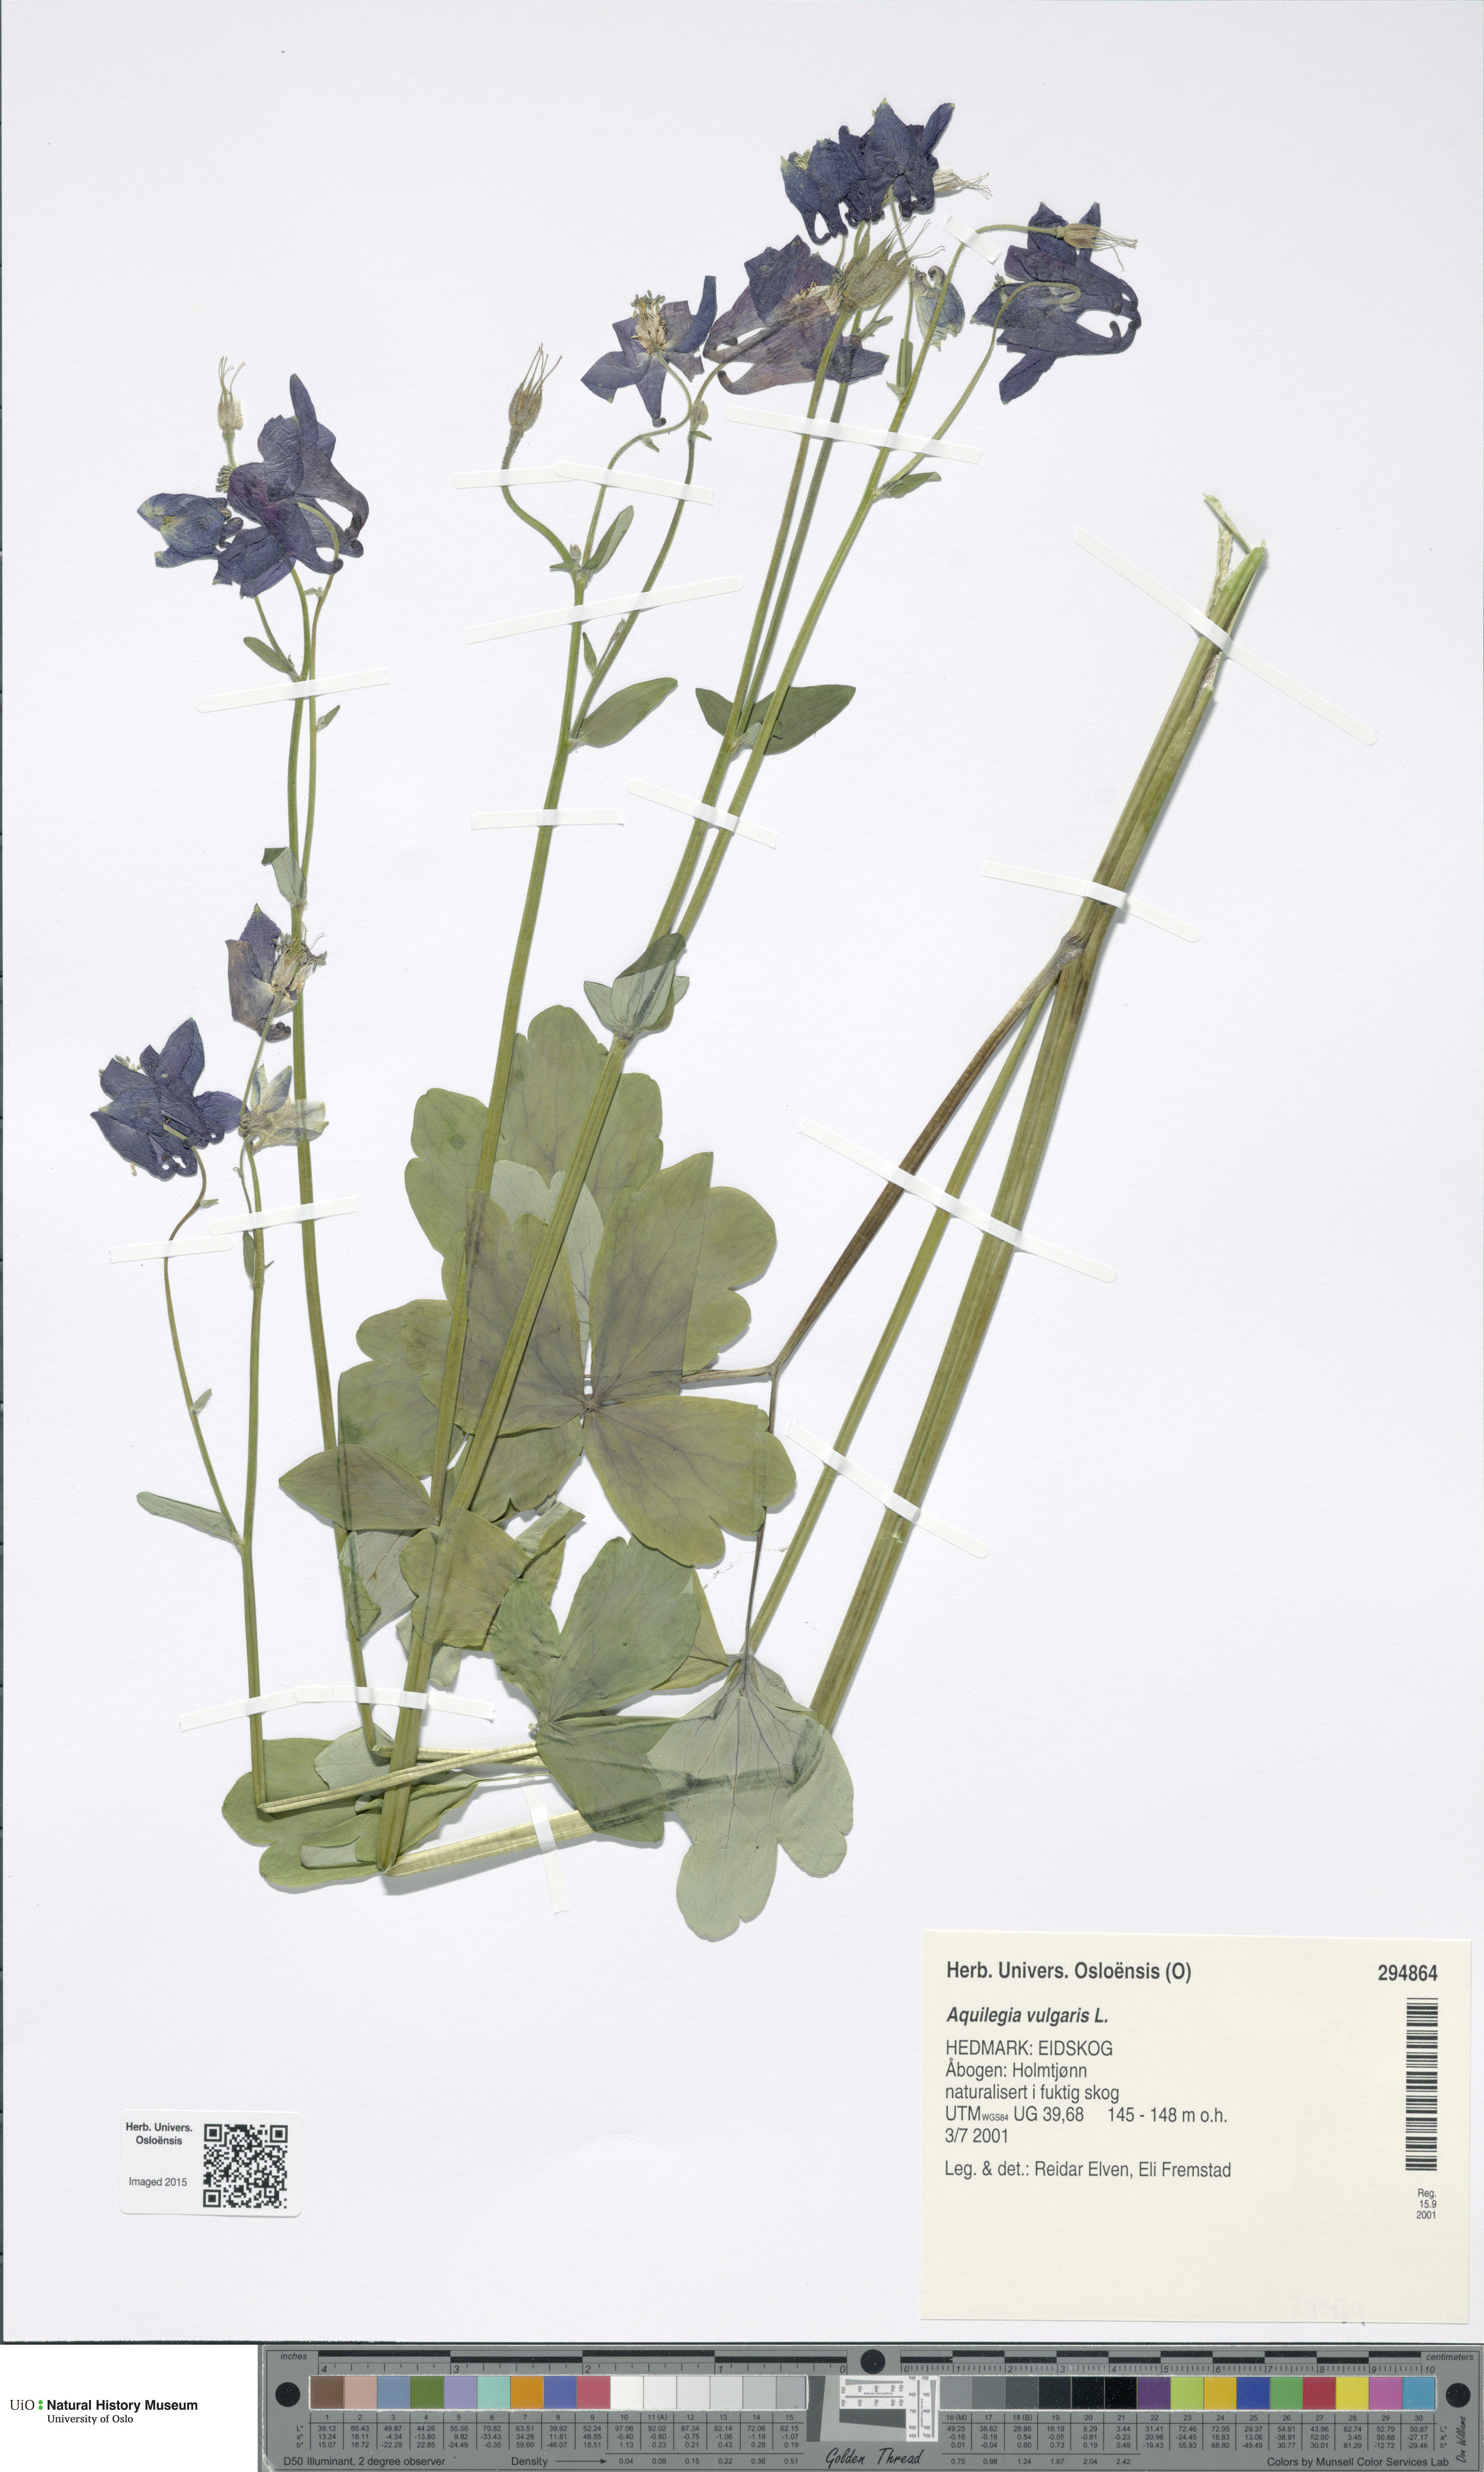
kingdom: Plantae
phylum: Tracheophyta
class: Magnoliopsida
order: Ranunculales
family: Ranunculaceae
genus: Aquilegia
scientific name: Aquilegia vulgaris
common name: Columbine
